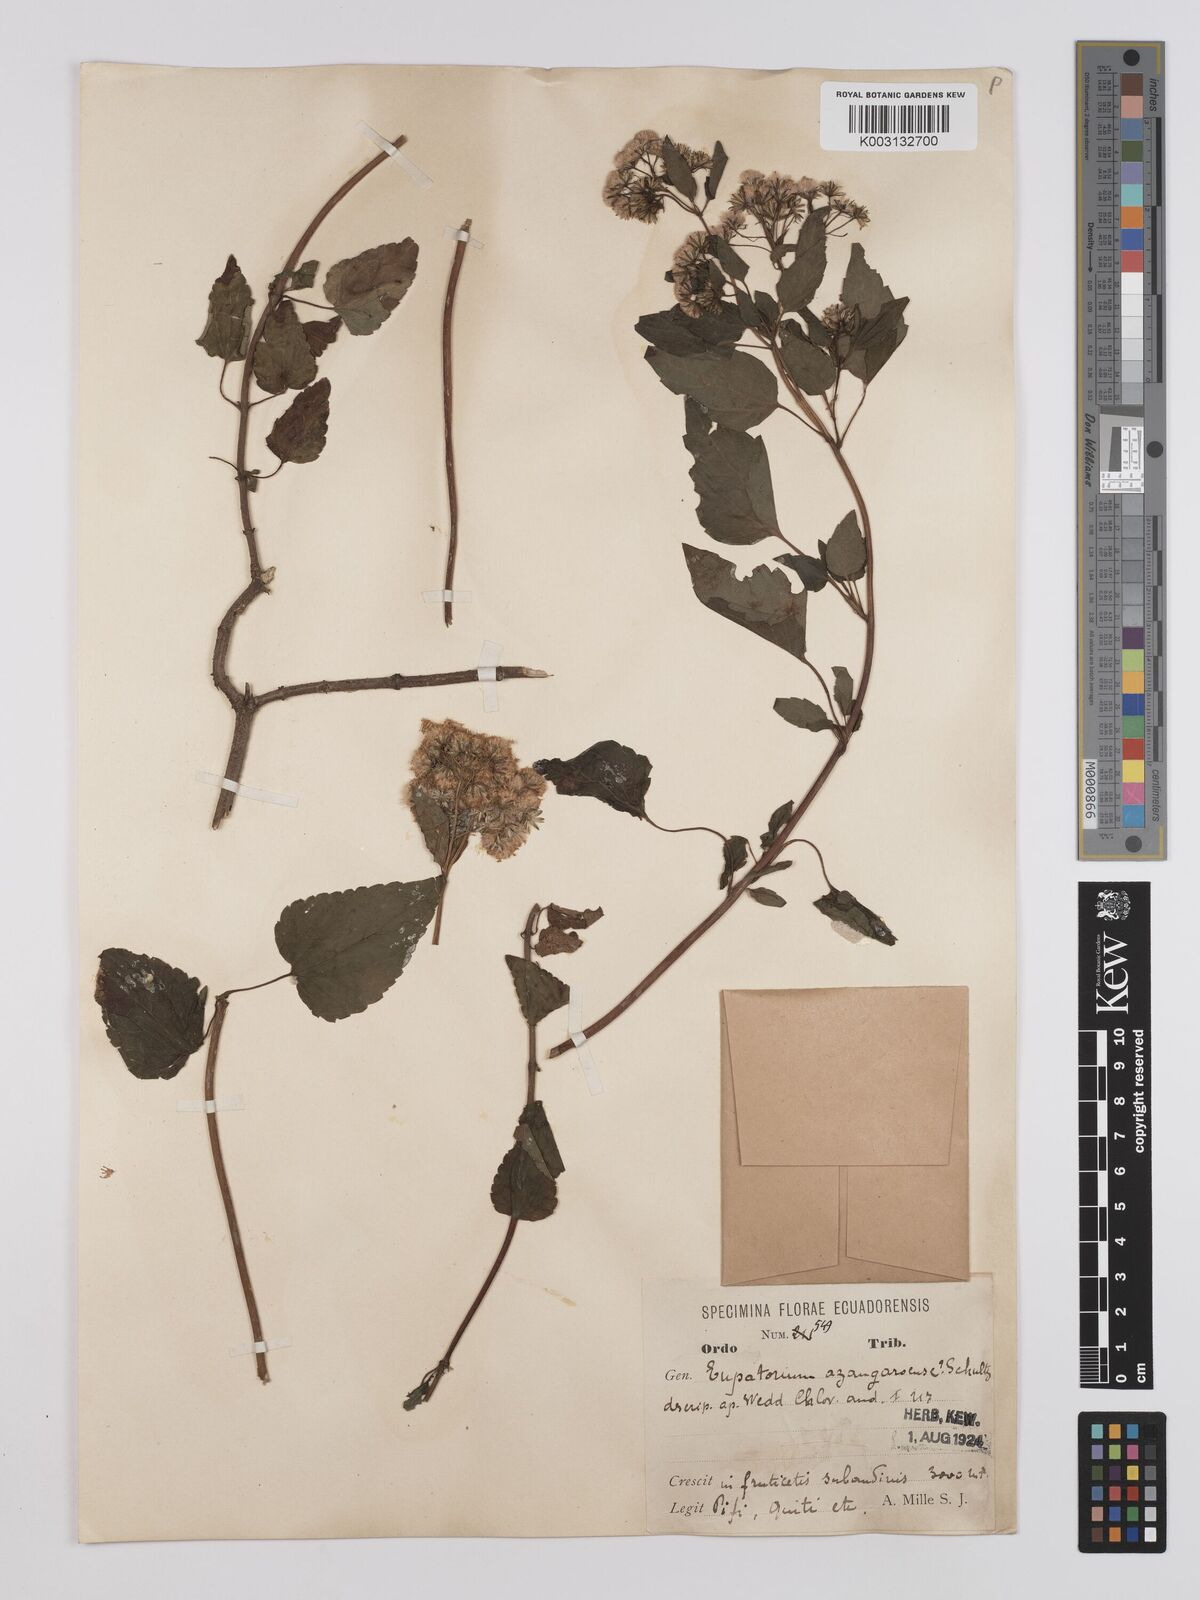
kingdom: Plantae
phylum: Tracheophyta
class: Magnoliopsida
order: Asterales
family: Asteraceae
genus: Ageratina
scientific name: Ageratina glechonophylla
